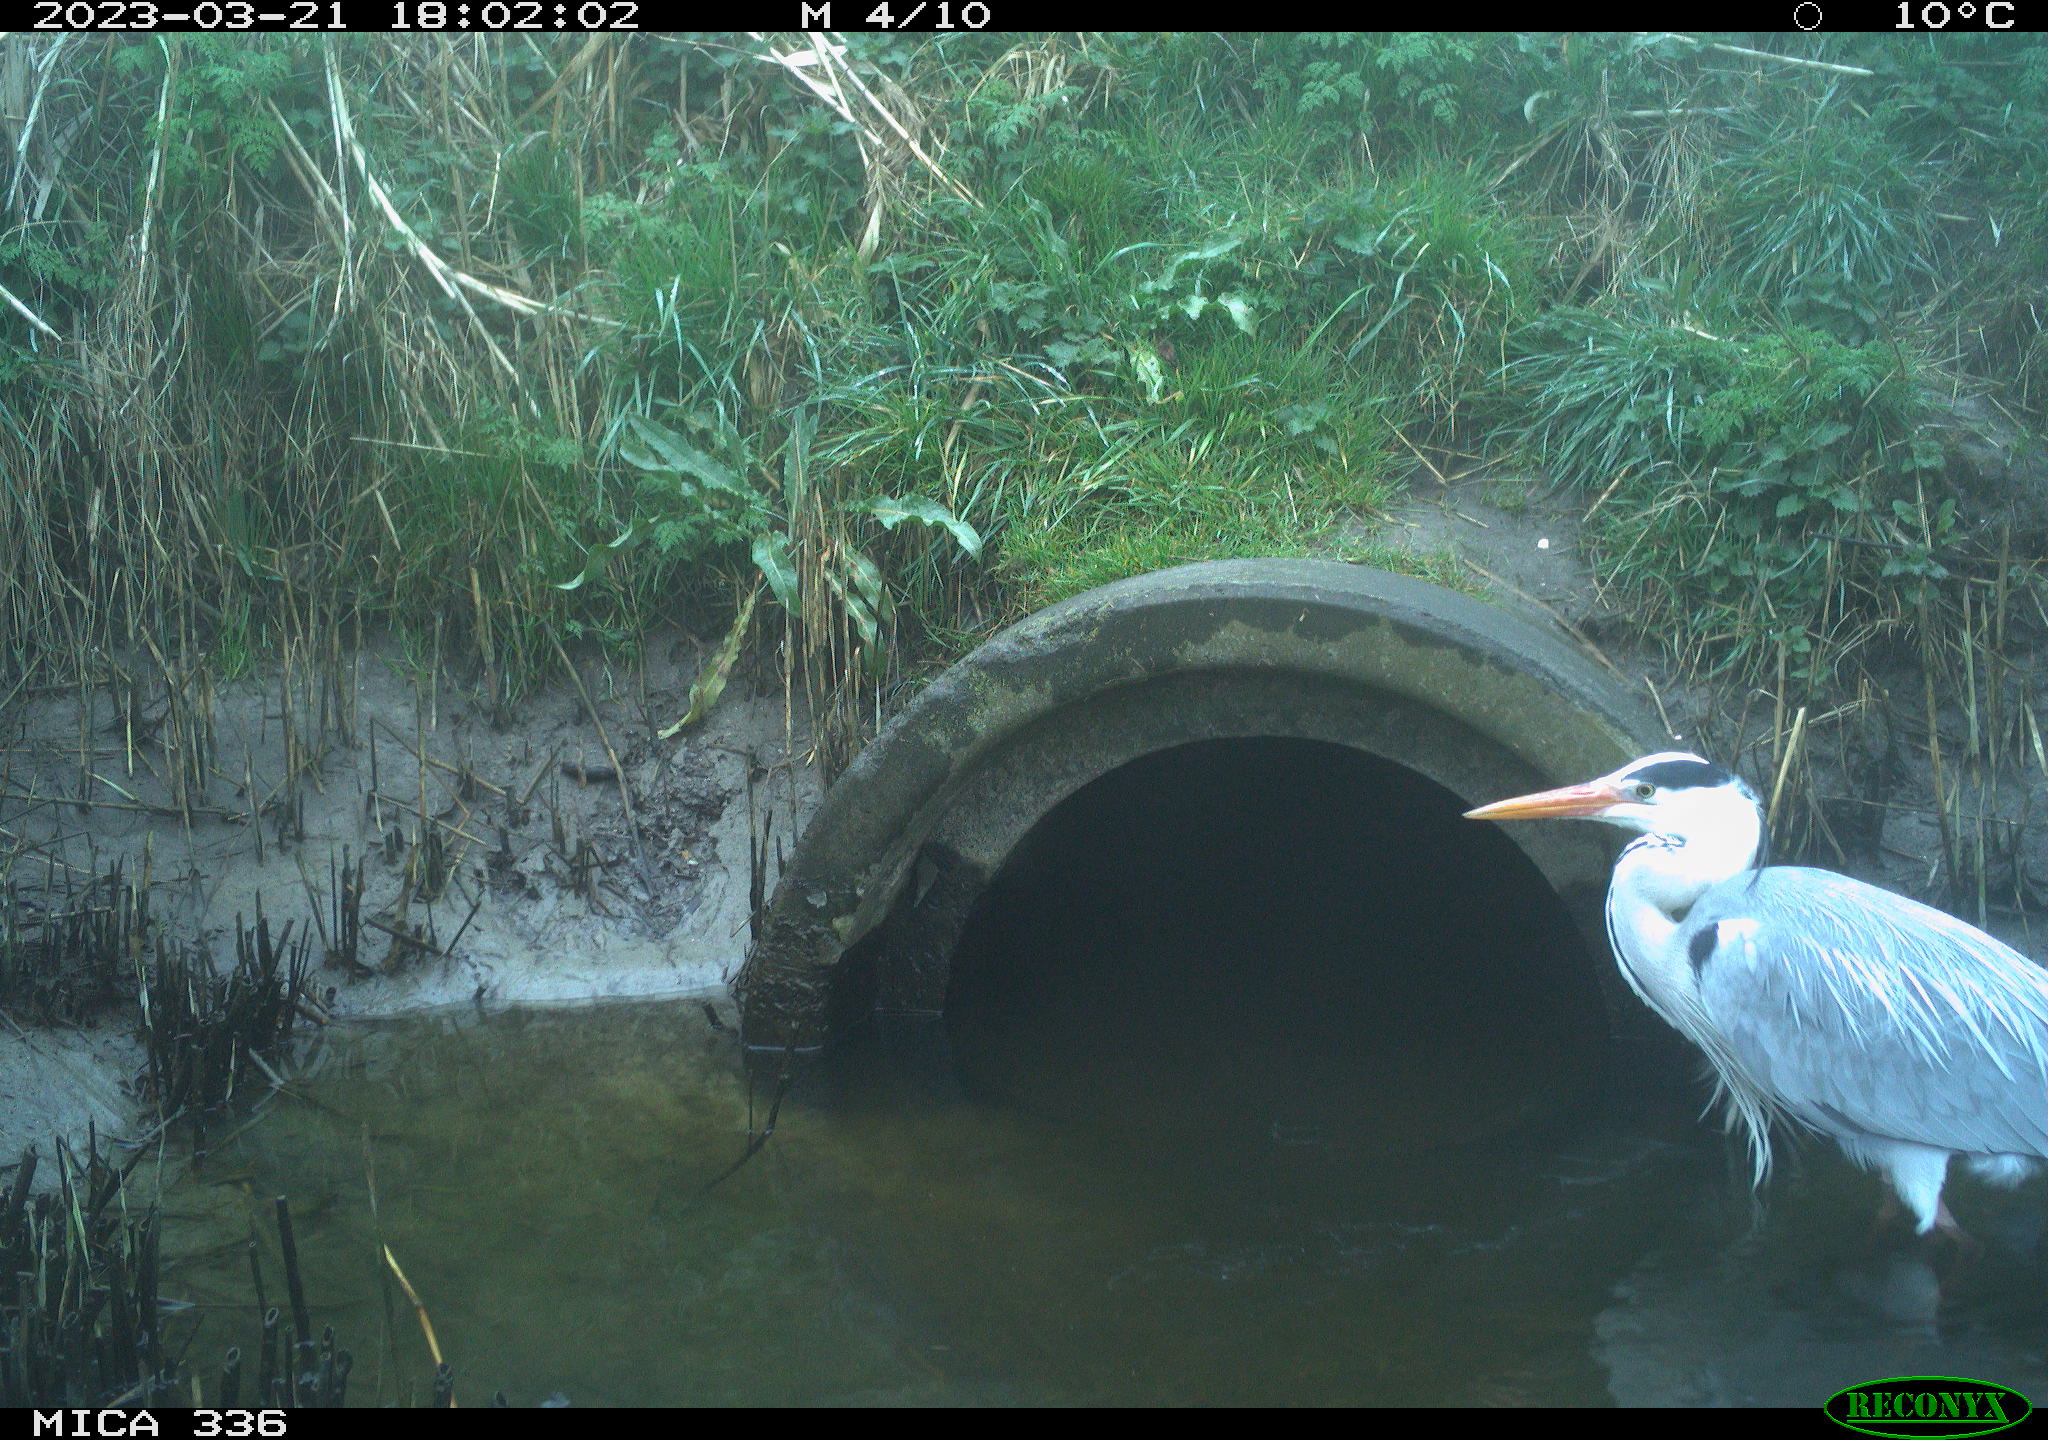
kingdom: Animalia
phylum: Chordata
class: Aves
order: Pelecaniformes
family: Ardeidae
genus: Ardea
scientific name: Ardea cinerea
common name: Grey heron
